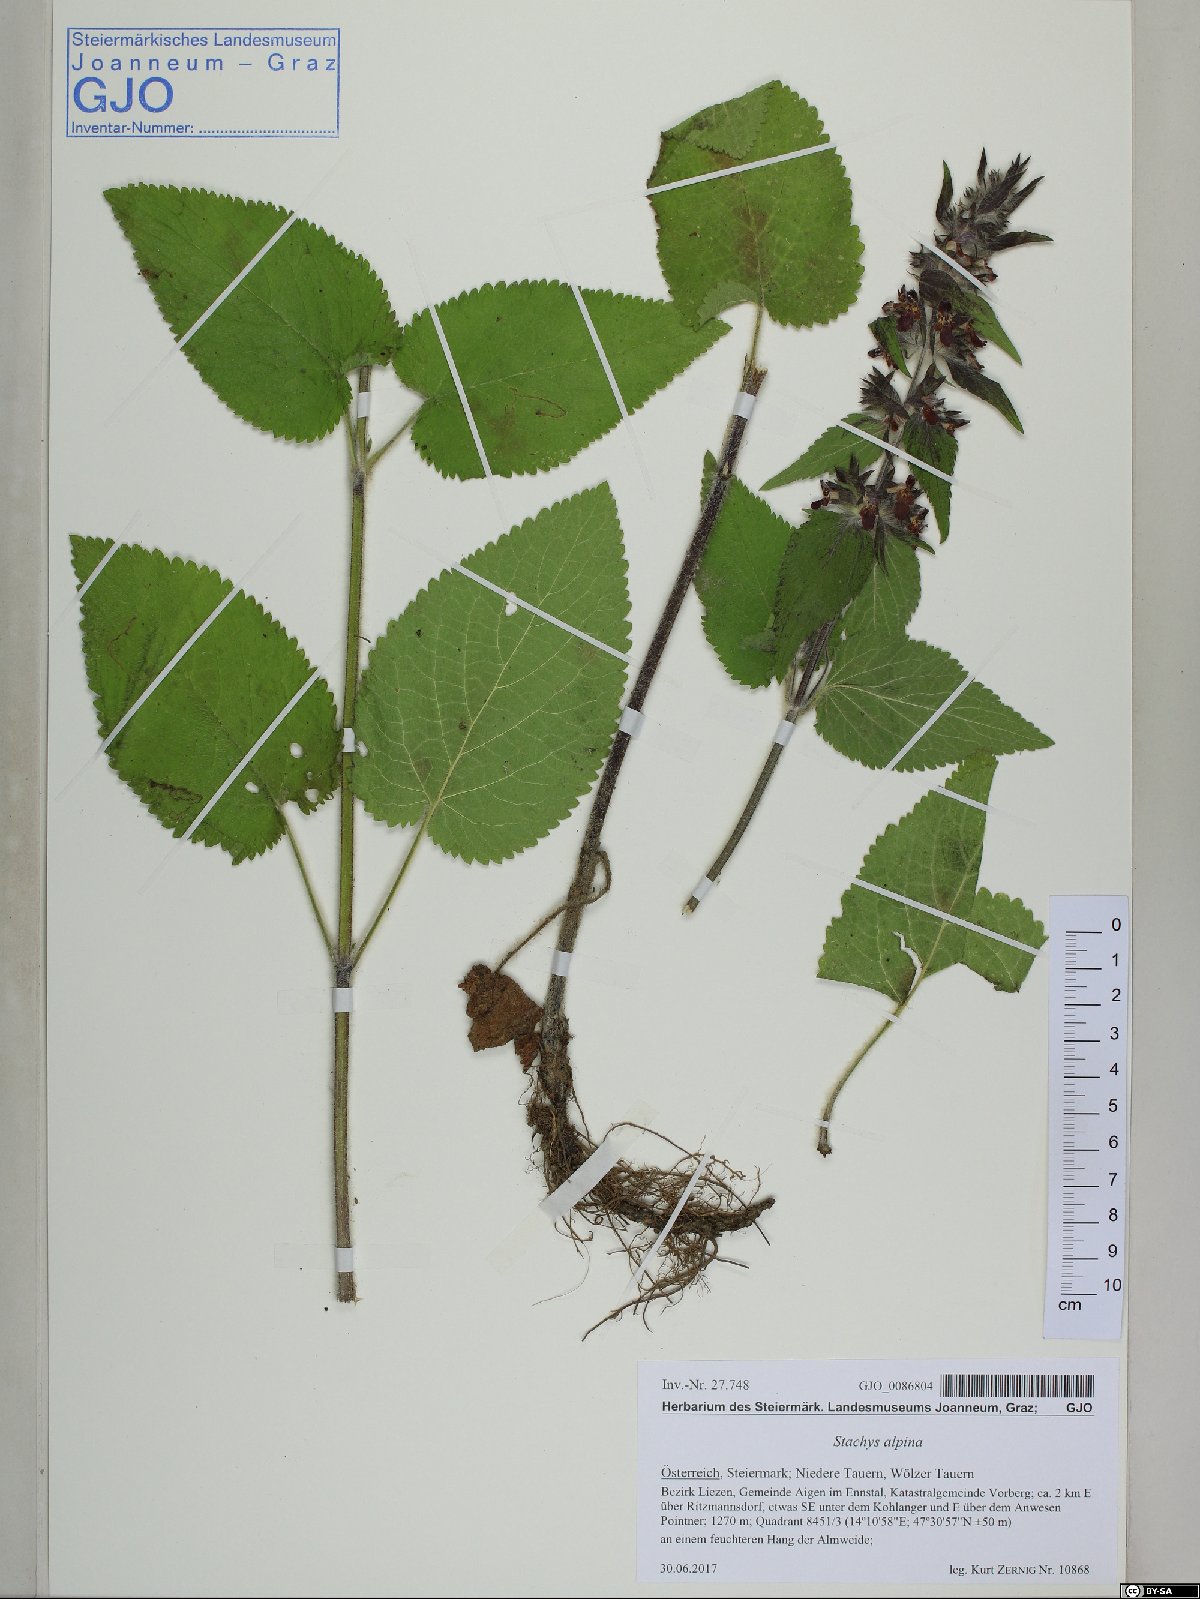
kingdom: Plantae
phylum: Tracheophyta
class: Magnoliopsida
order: Lamiales
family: Lamiaceae
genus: Stachys
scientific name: Stachys alpina
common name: Limestone woundwort
